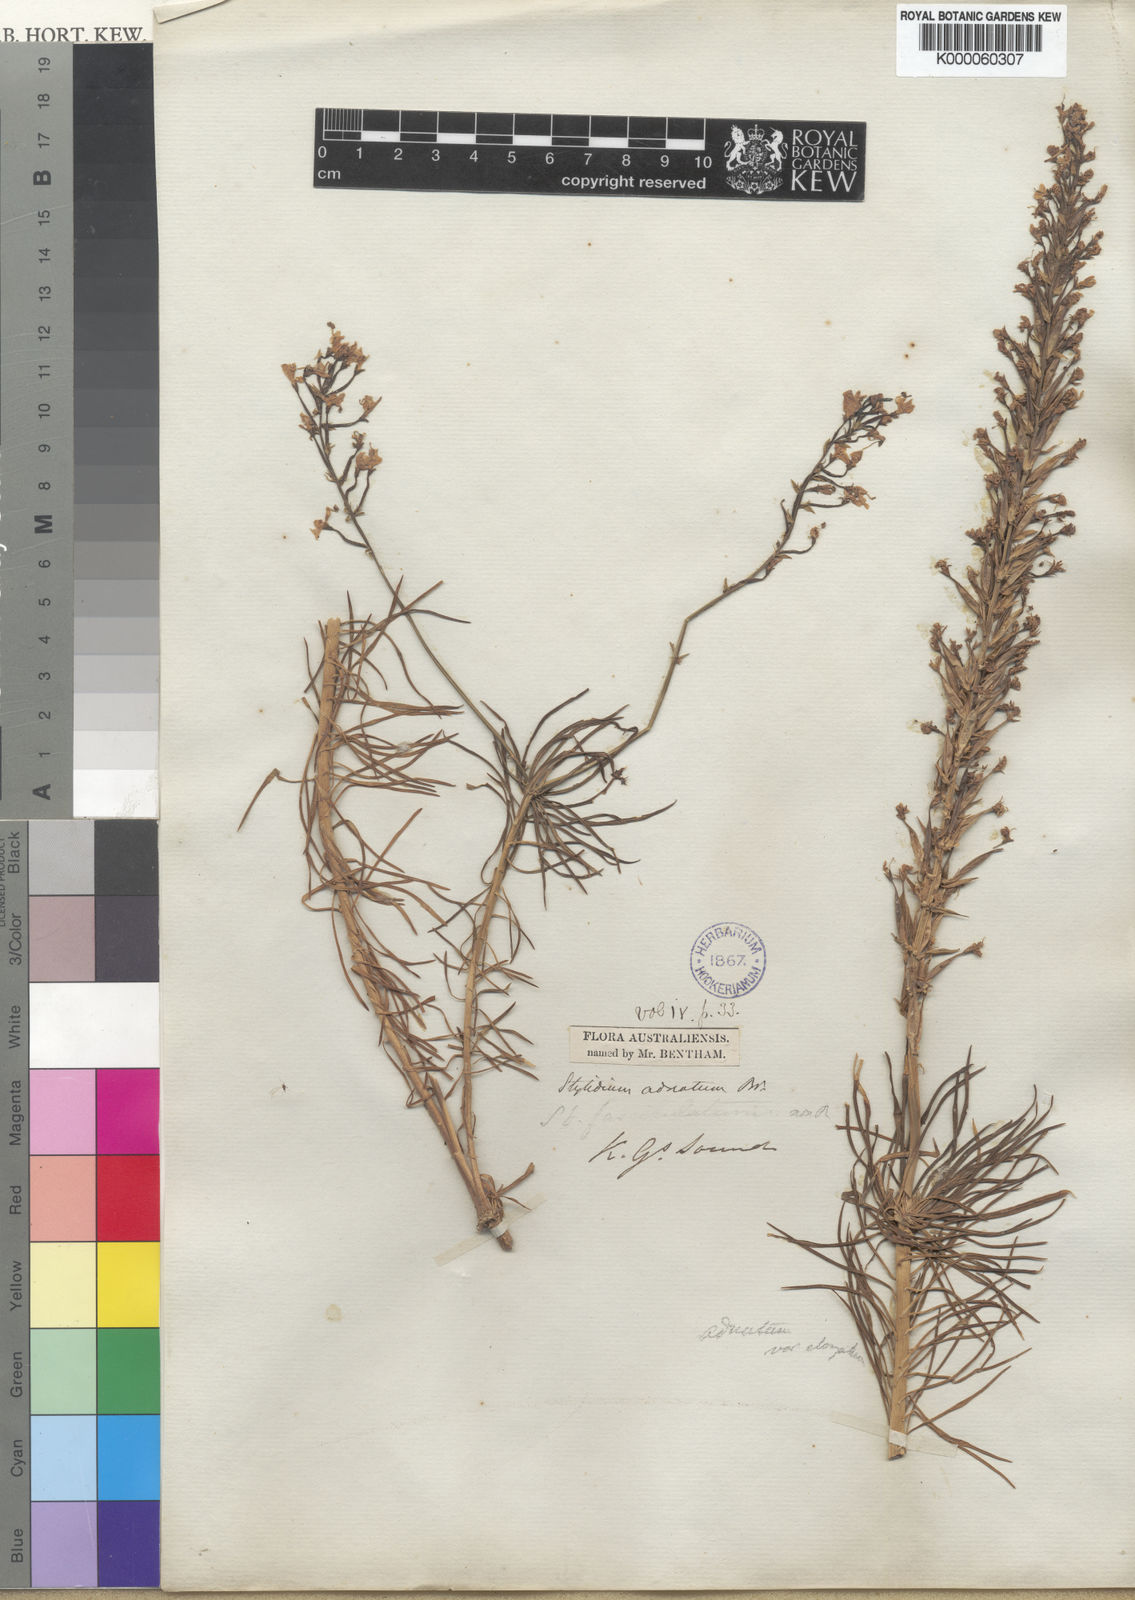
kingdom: Plantae
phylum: Tracheophyta
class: Magnoliopsida
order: Asterales
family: Stylidiaceae
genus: Stylidium
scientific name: Stylidium adnatum
